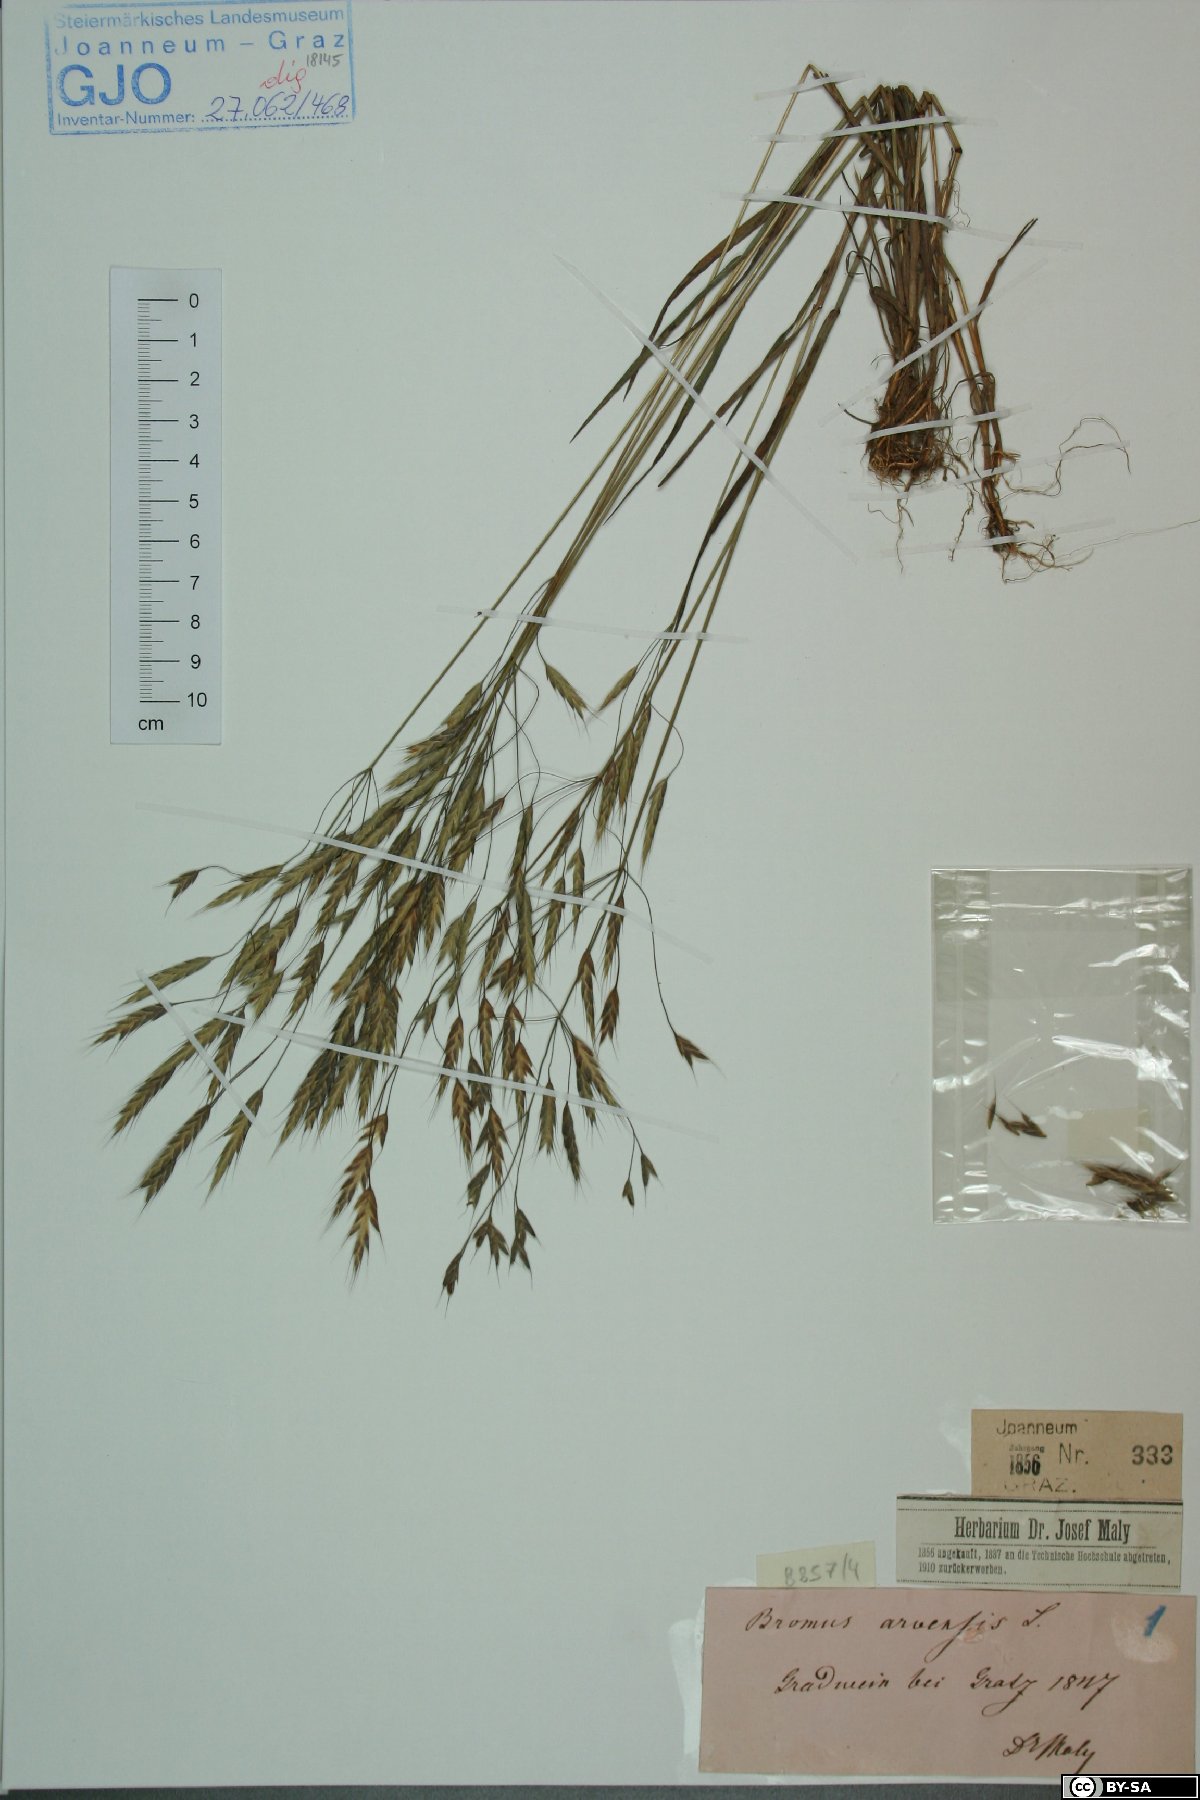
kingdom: Plantae
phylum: Tracheophyta
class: Liliopsida
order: Poales
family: Poaceae
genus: Bromus
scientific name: Bromus arvensis
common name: Field brome
